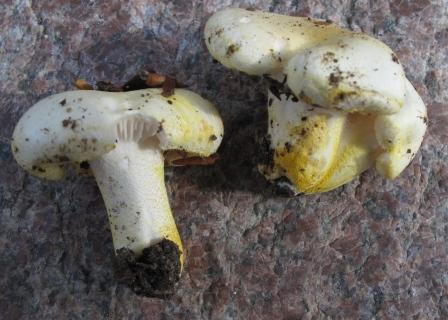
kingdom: Fungi
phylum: Basidiomycota
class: Agaricomycetes
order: Agaricales
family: Hygrophoraceae
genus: Hygrophorus
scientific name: Hygrophorus chrysodon
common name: gulfnugget sneglehat
